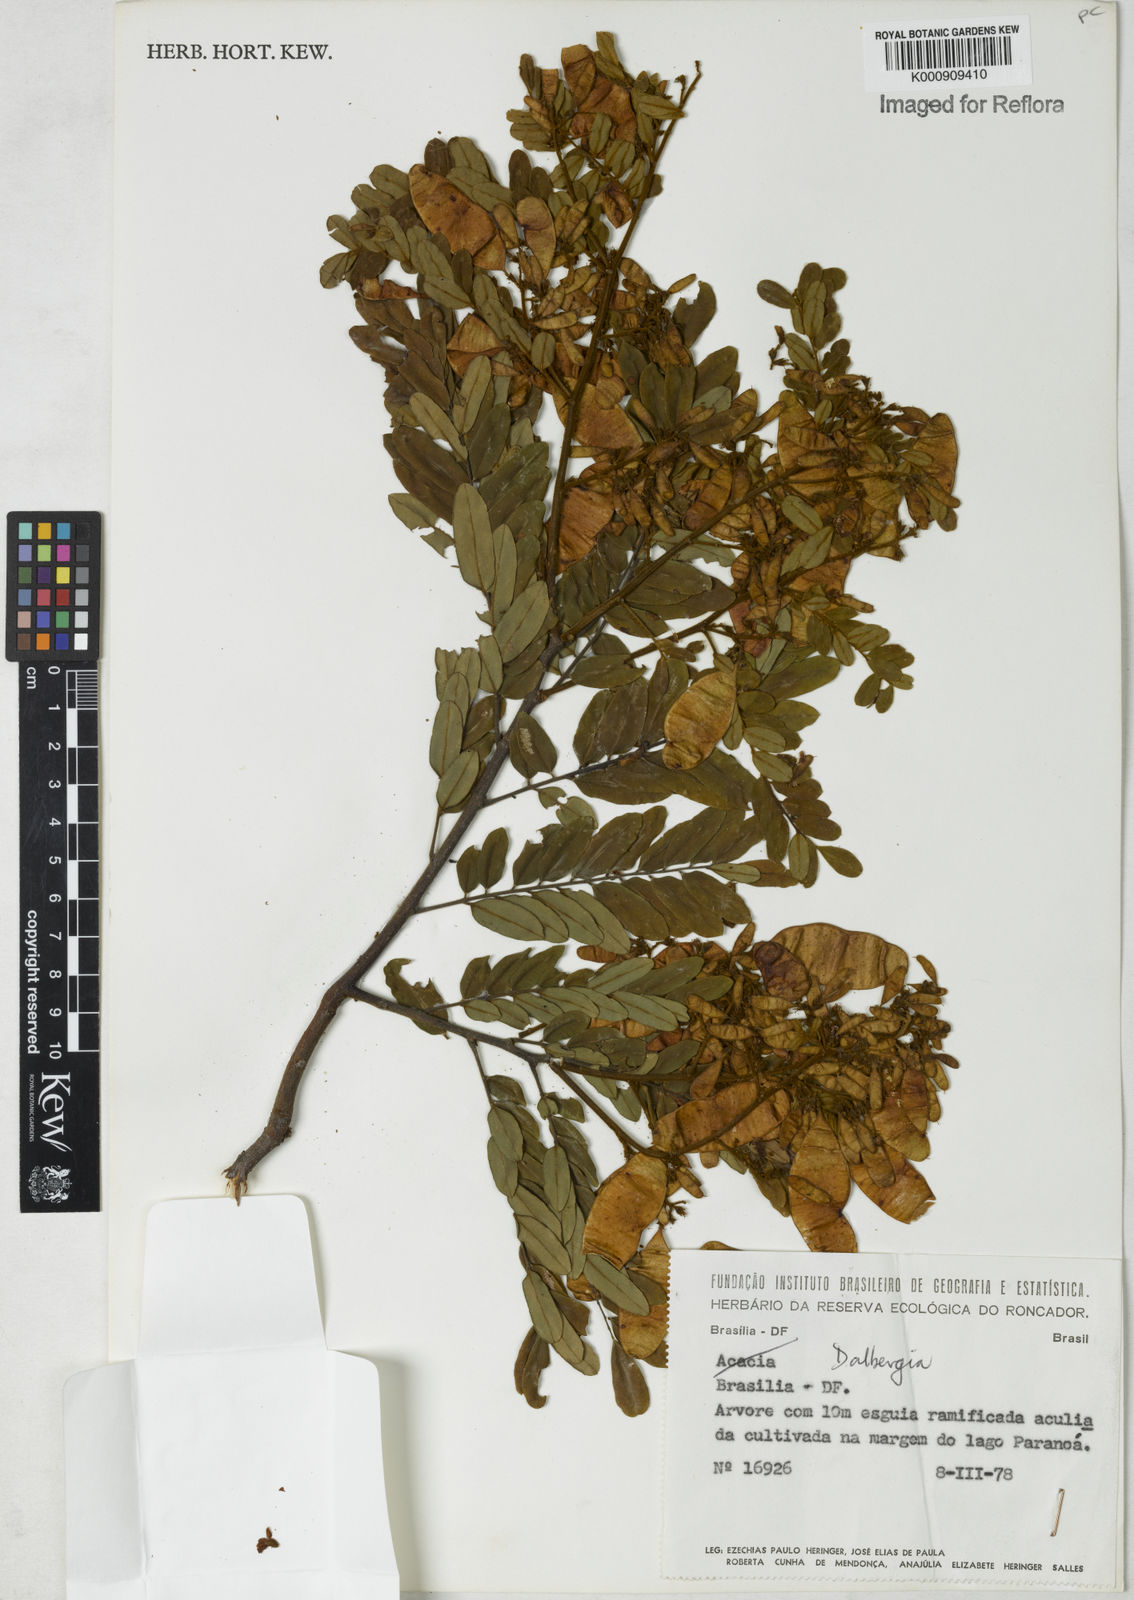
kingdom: Plantae
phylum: Tracheophyta
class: Magnoliopsida
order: Fabales
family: Fabaceae
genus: Dalbergia
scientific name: Dalbergia
